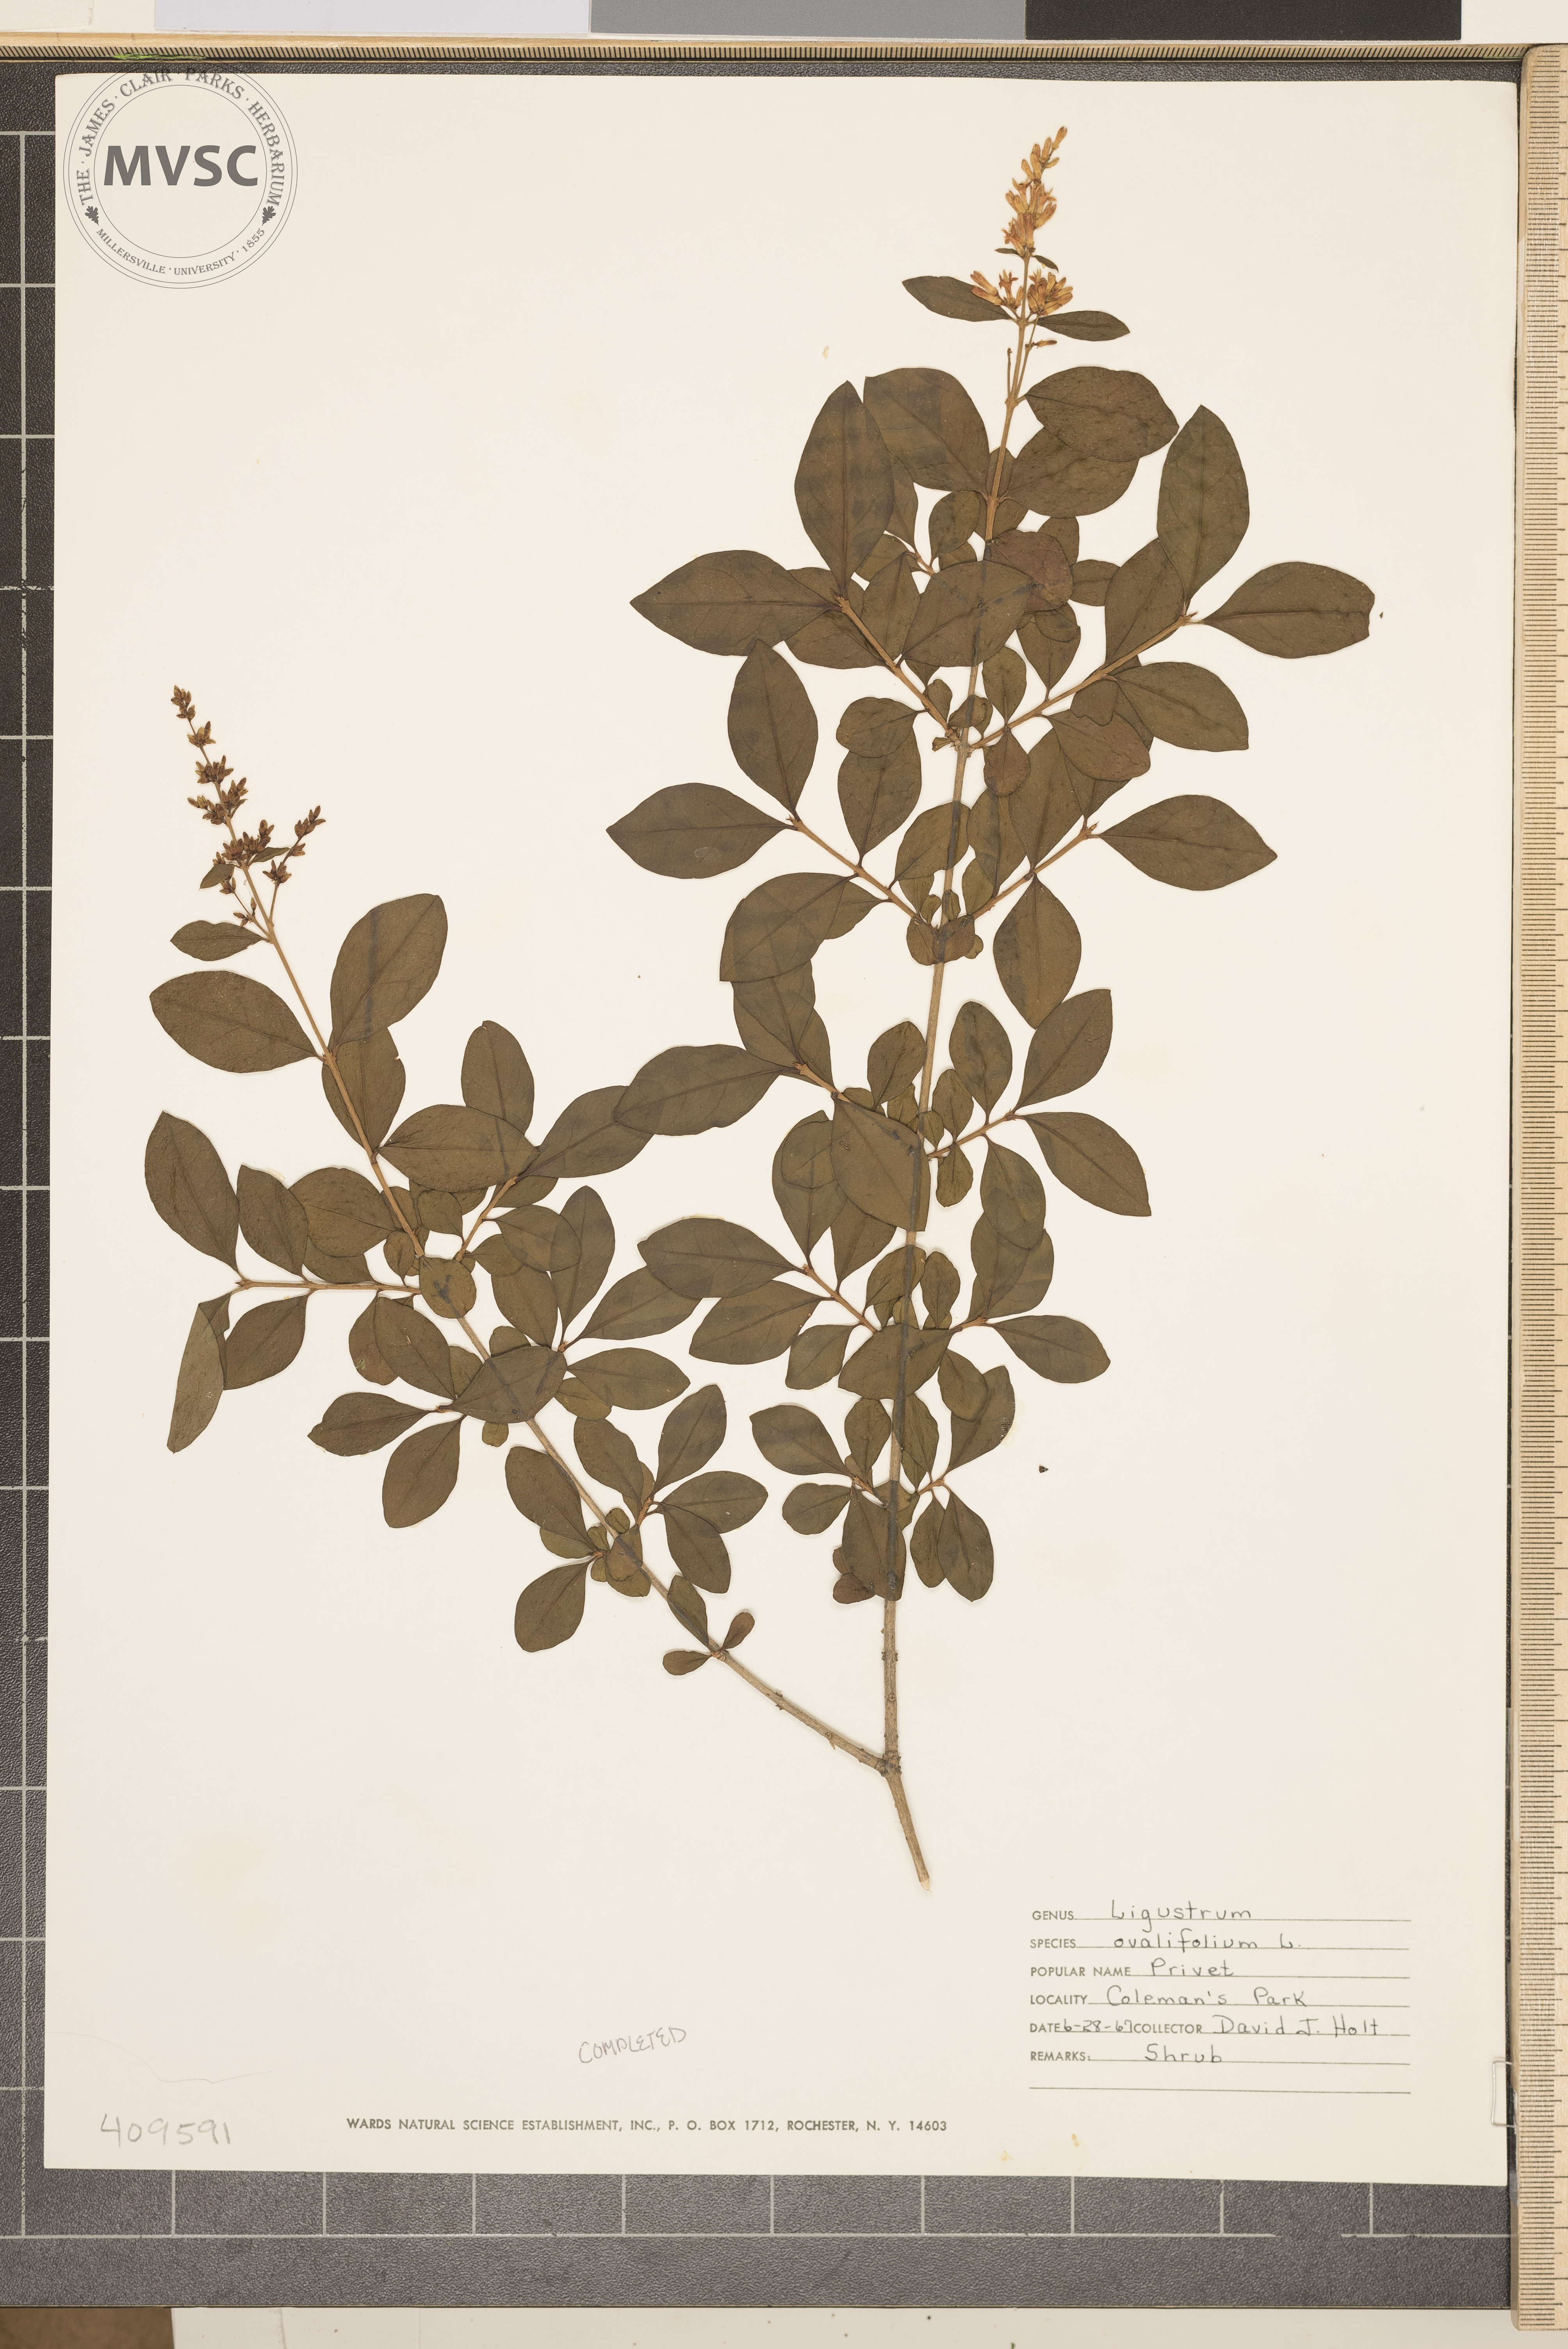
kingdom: Plantae
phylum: Tracheophyta
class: Magnoliopsida
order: Lamiales
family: Oleaceae
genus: Ligustrum
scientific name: Ligustrum vulgare
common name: Wild privet
